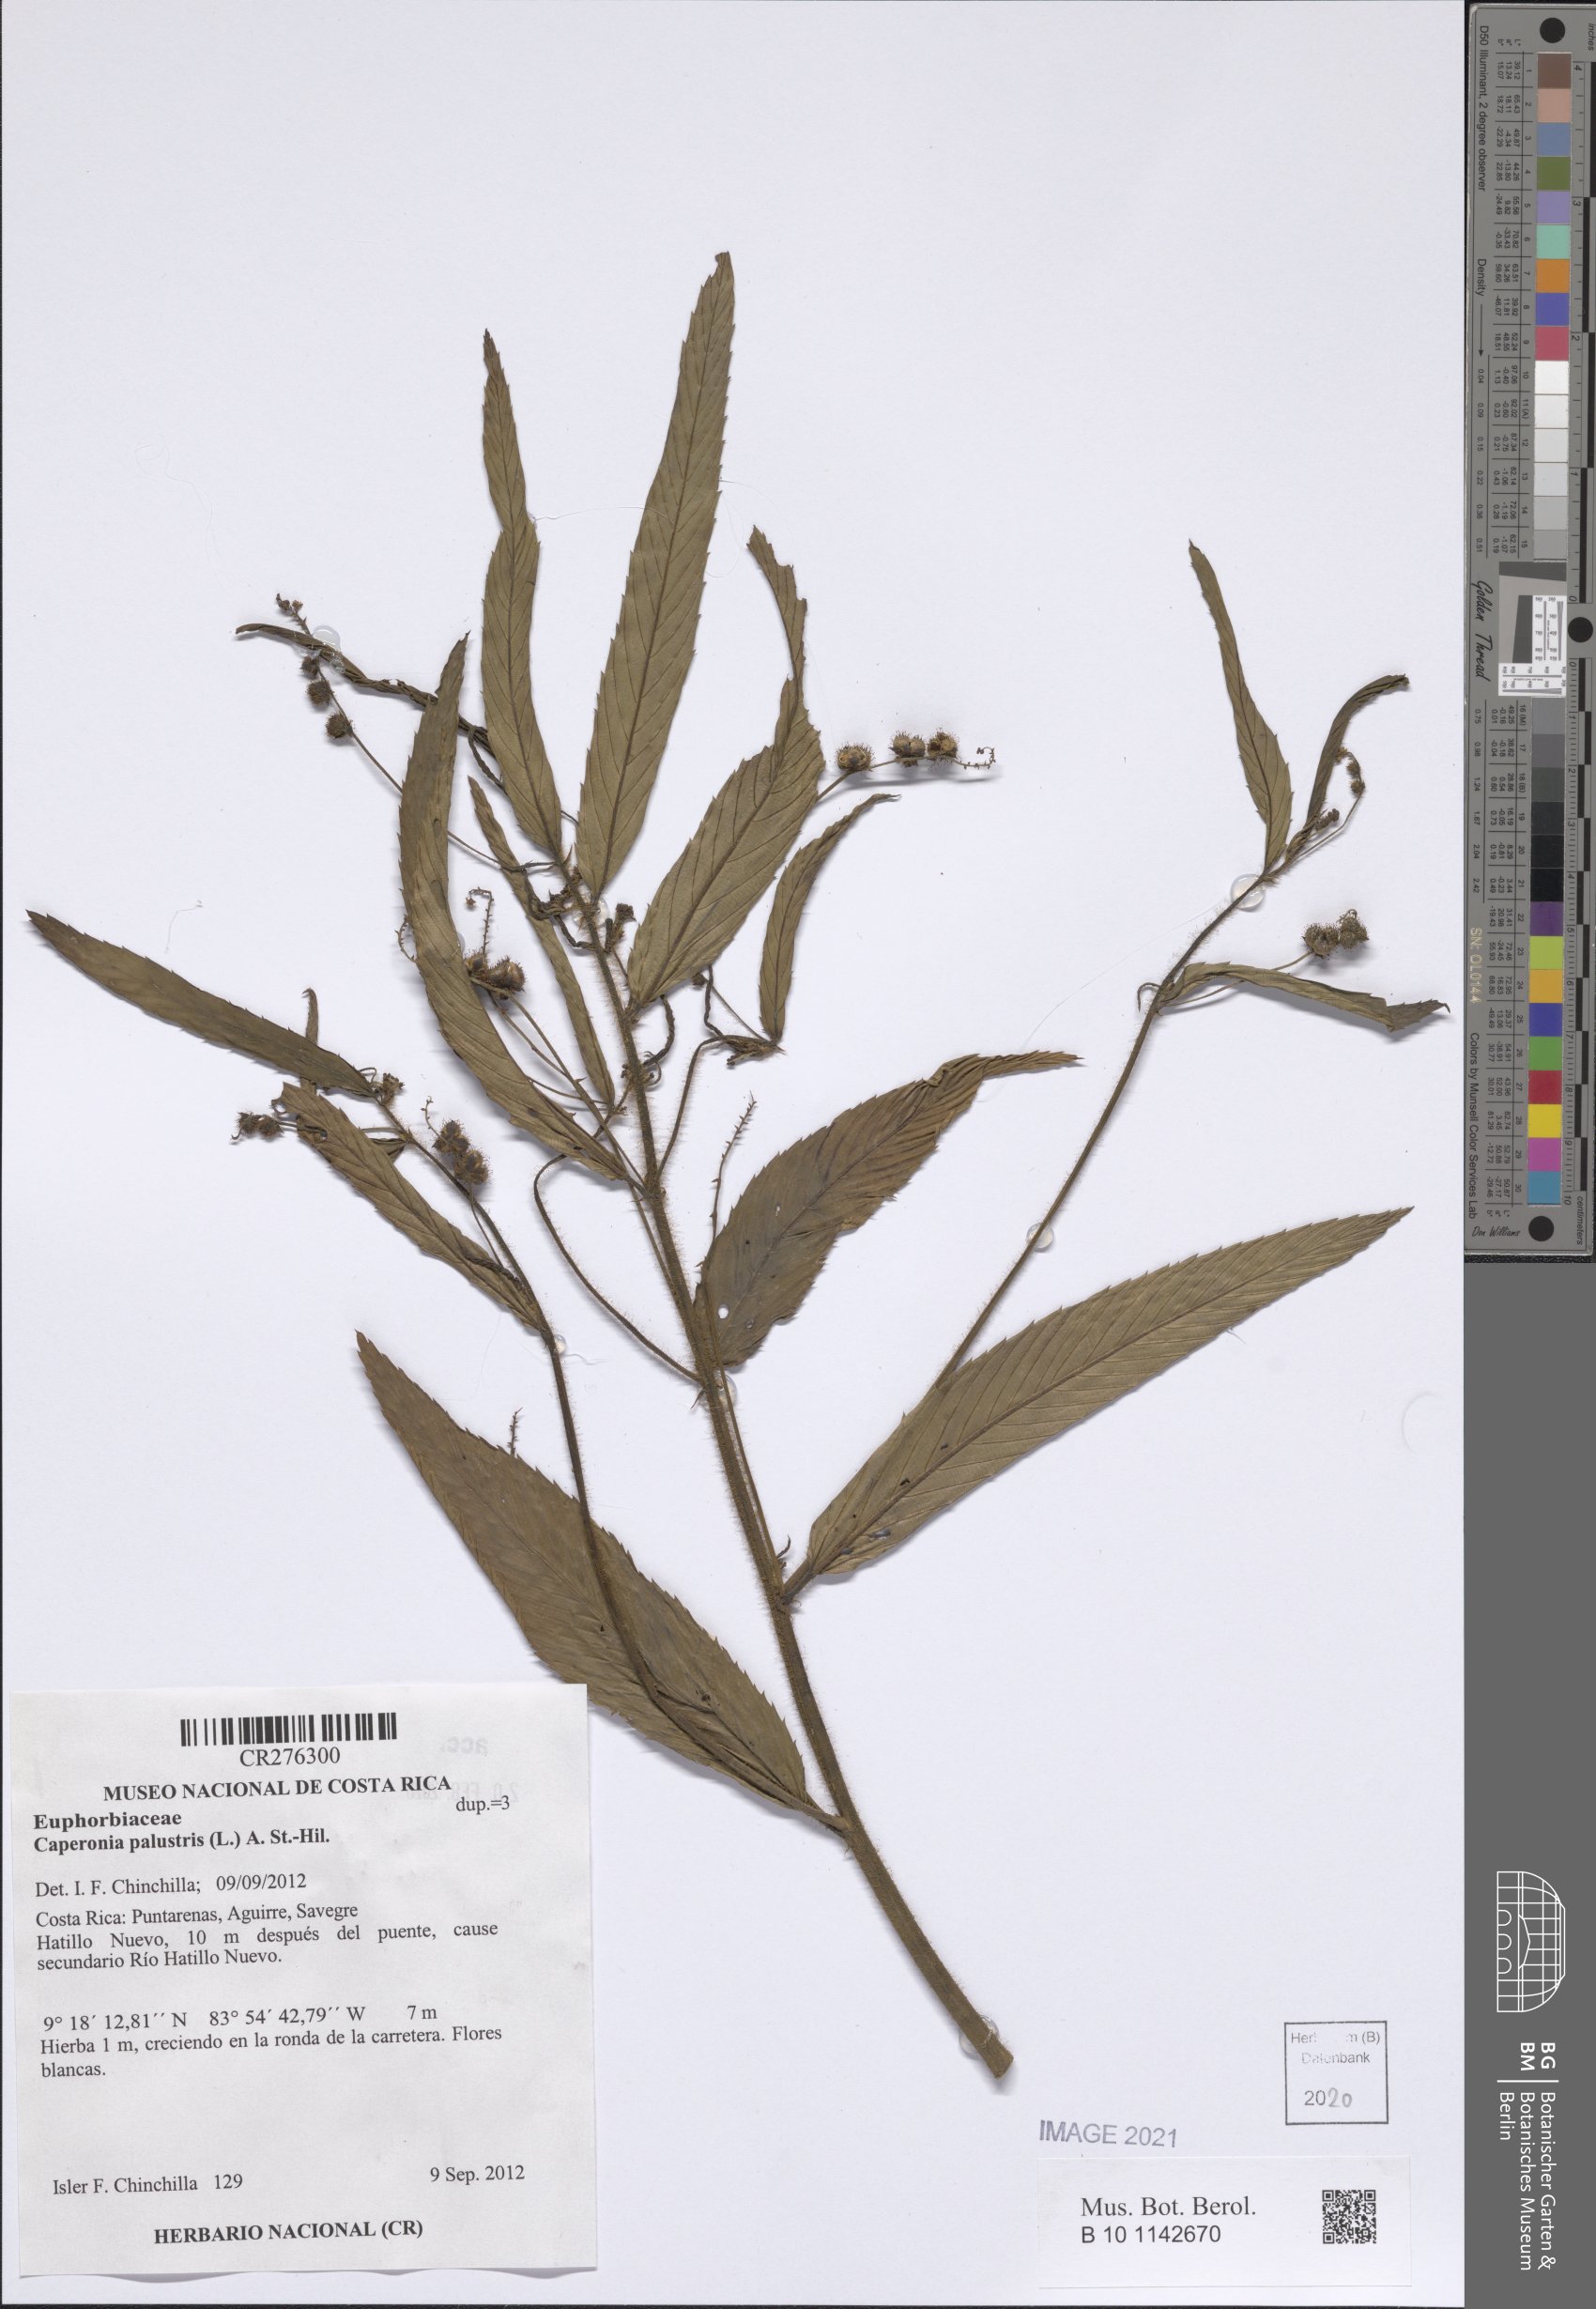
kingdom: Plantae
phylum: Tracheophyta
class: Magnoliopsida
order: Malpighiales
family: Euphorbiaceae
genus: Caperonia
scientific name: Caperonia palustris
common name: Sacatrapo
